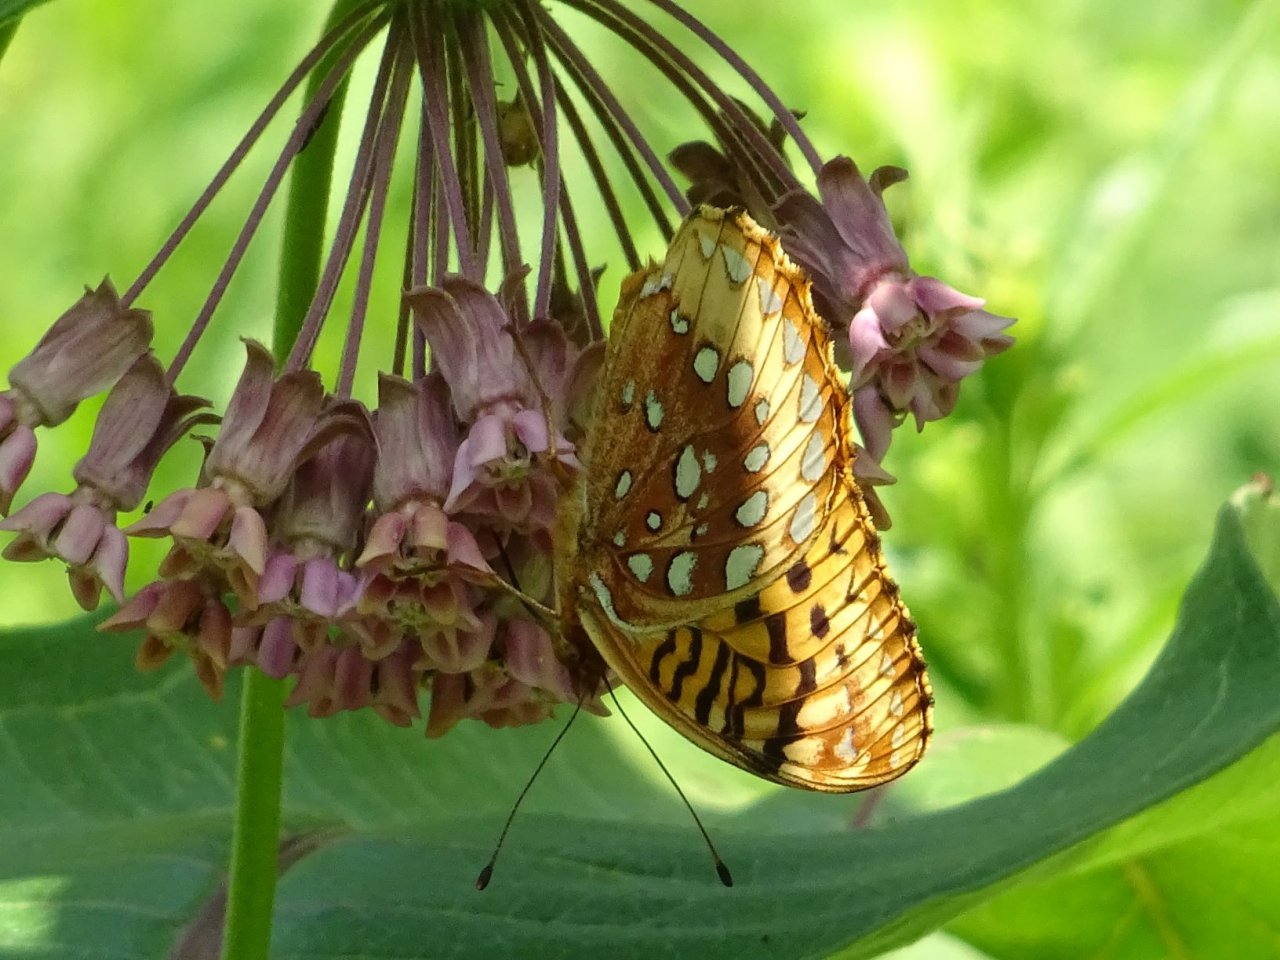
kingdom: Animalia
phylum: Arthropoda
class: Insecta
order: Lepidoptera
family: Nymphalidae
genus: Speyeria
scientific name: Speyeria cybele
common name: Great Spangled Fritillary
